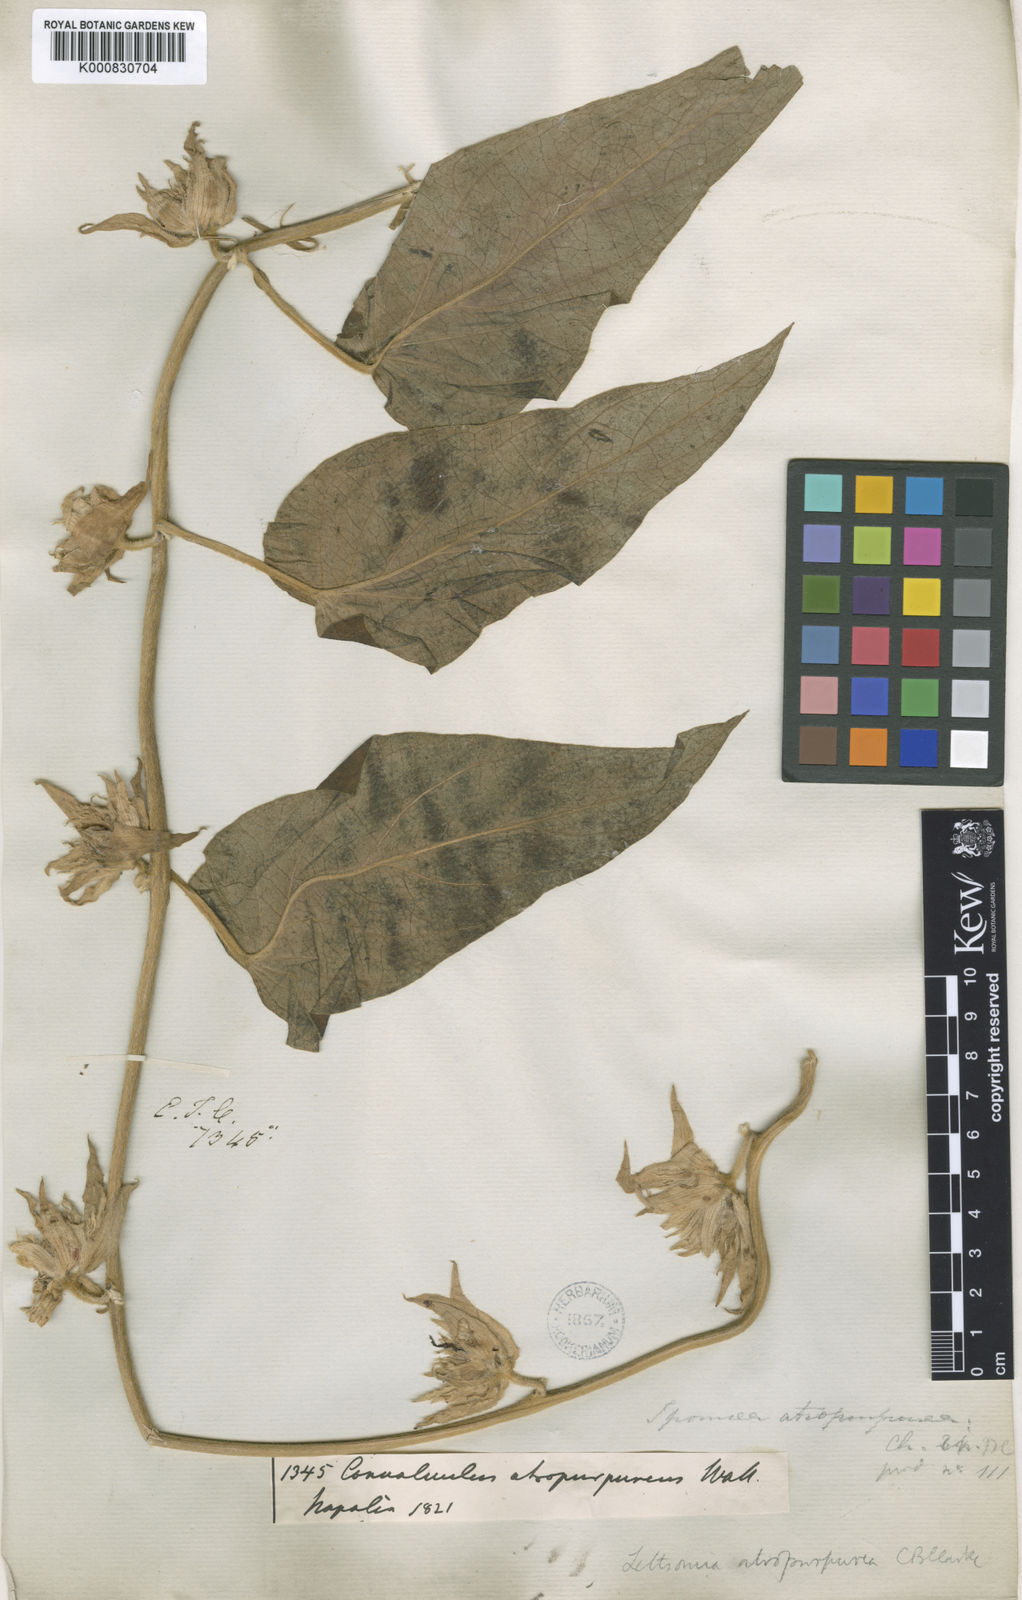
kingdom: Plantae
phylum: Tracheophyta
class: Magnoliopsida
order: Solanales
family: Convolvulaceae
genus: Argyreia
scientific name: Argyreia atropurpurea
